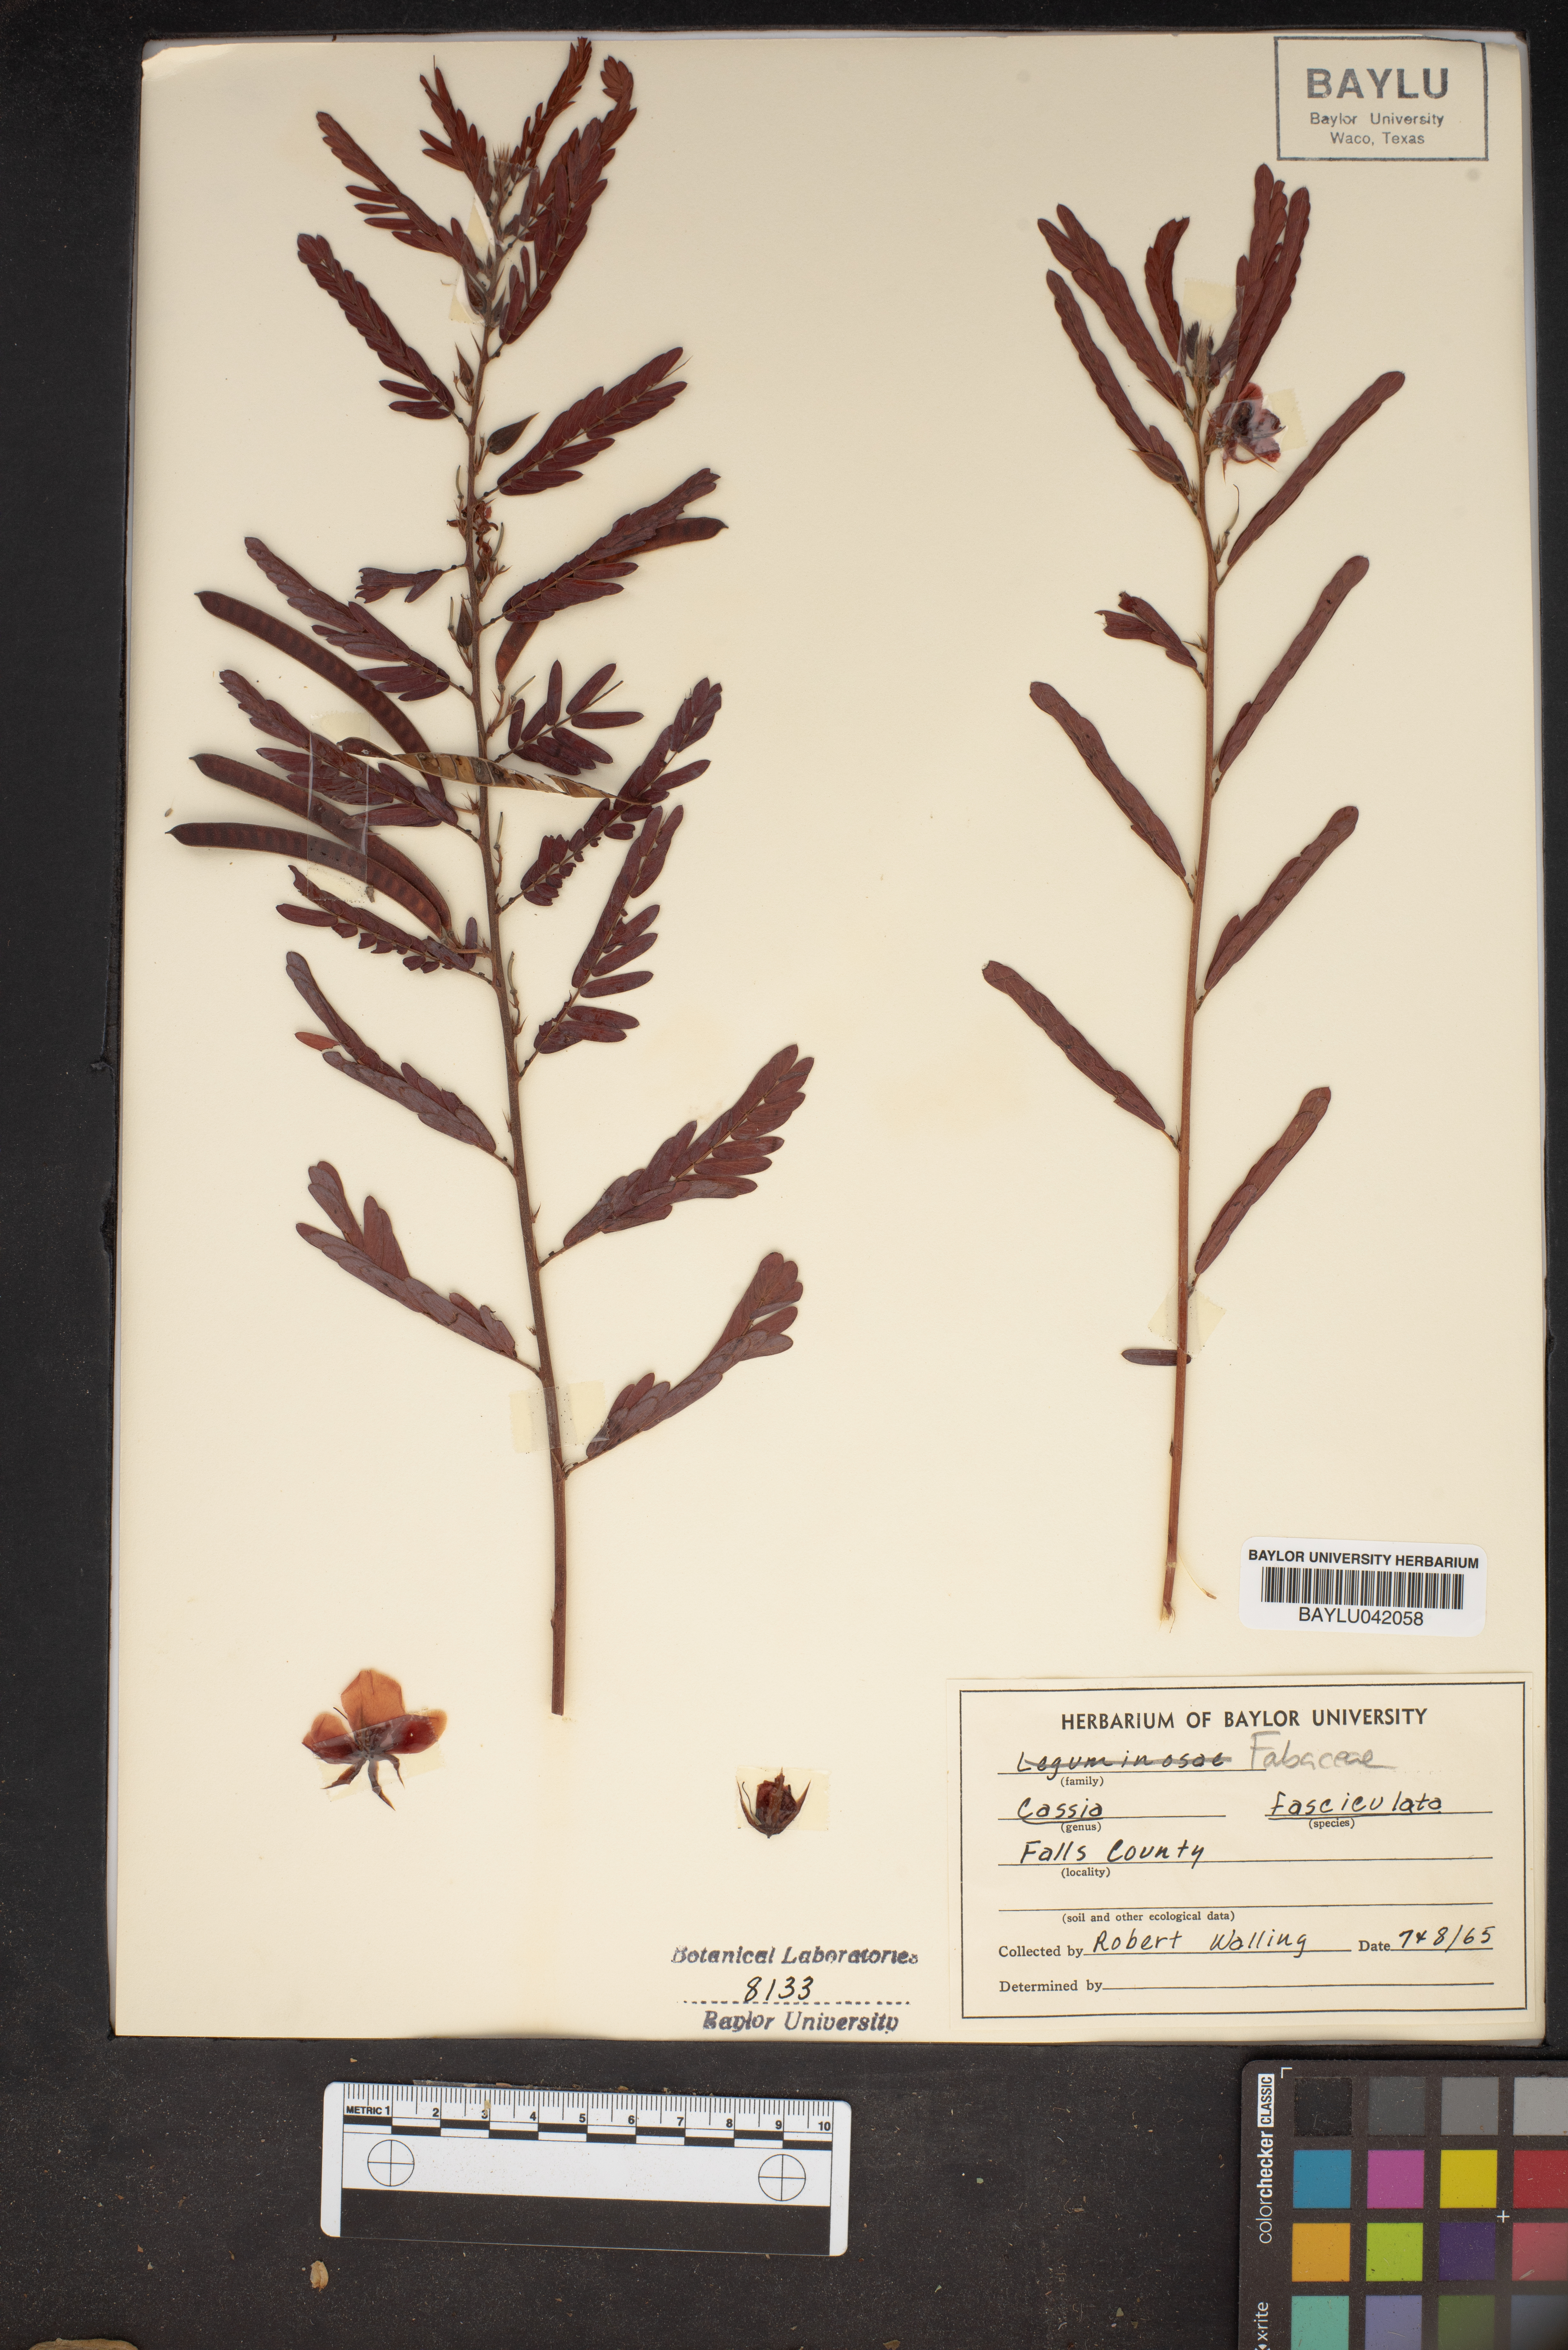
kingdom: Plantae
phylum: Tracheophyta
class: Magnoliopsida
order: Fabales
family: Fabaceae
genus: Chamaecrista
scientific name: Chamaecrista fasciculata
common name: Golden cassia
